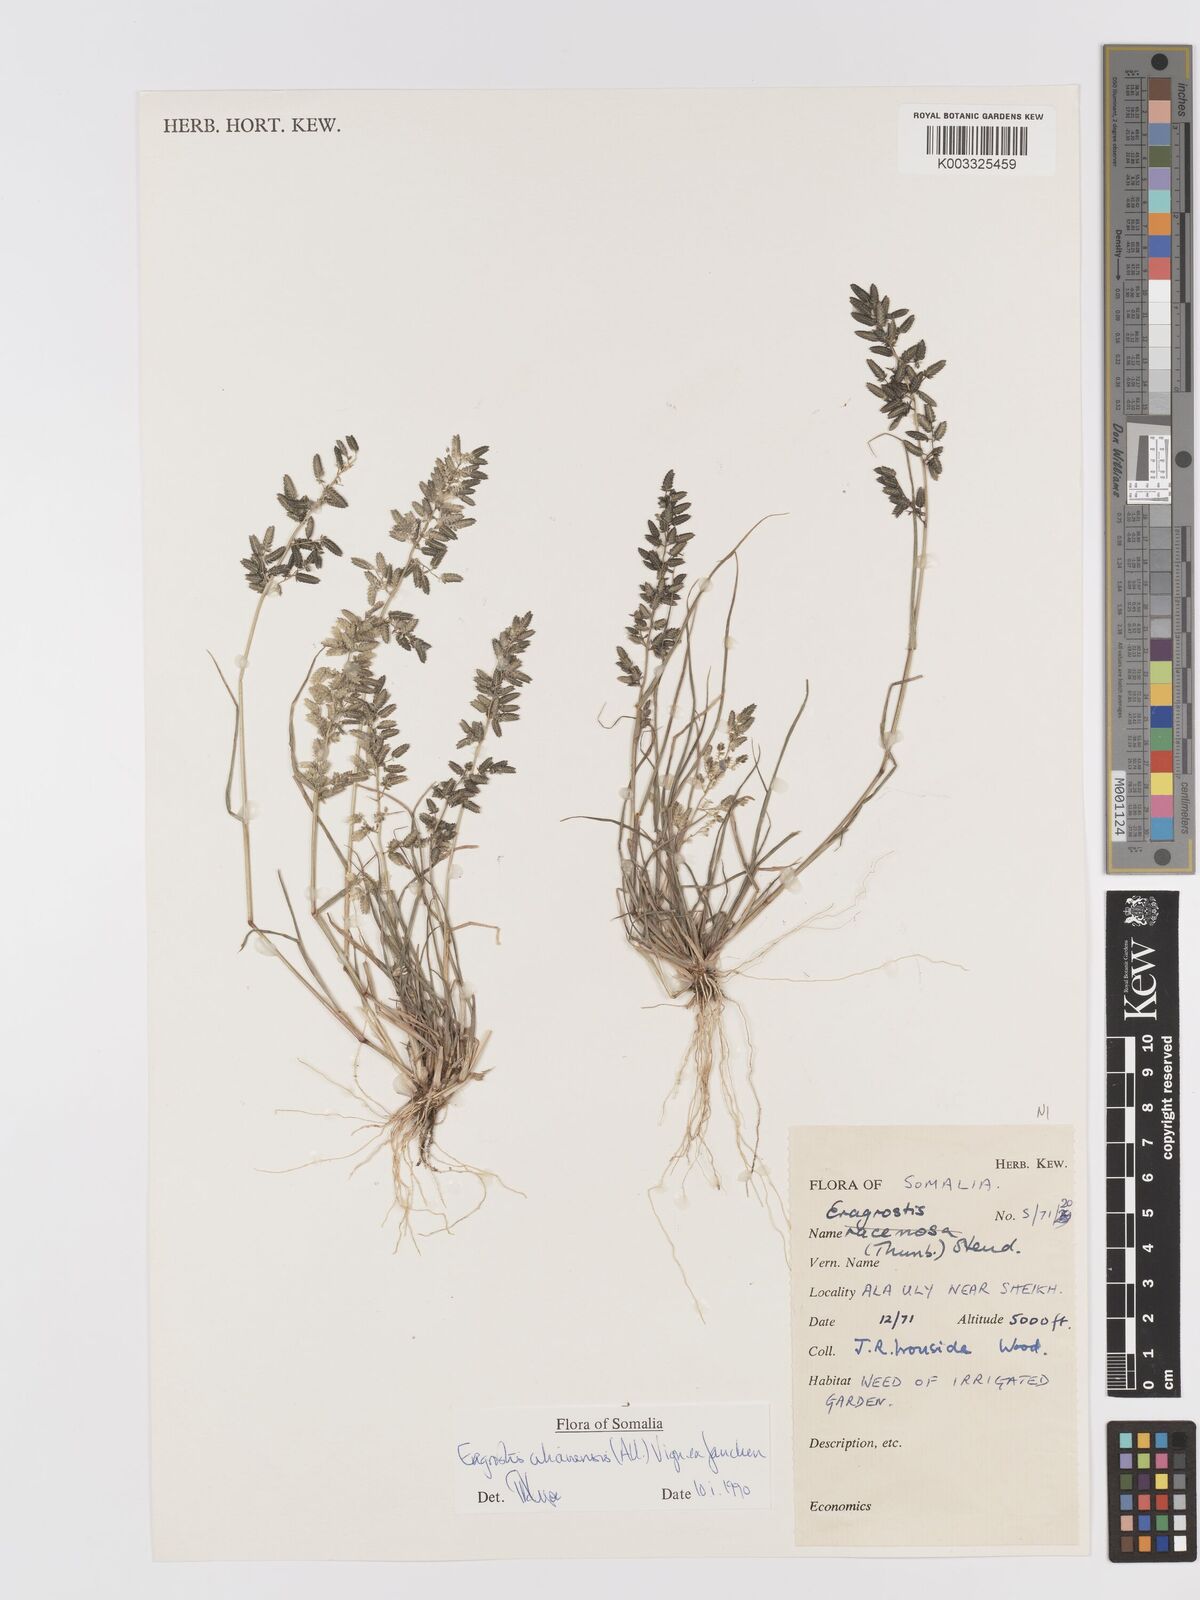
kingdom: Plantae
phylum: Tracheophyta
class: Liliopsida
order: Poales
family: Poaceae
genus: Eragrostis
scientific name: Eragrostis cilianensis
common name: Stinkgrass
